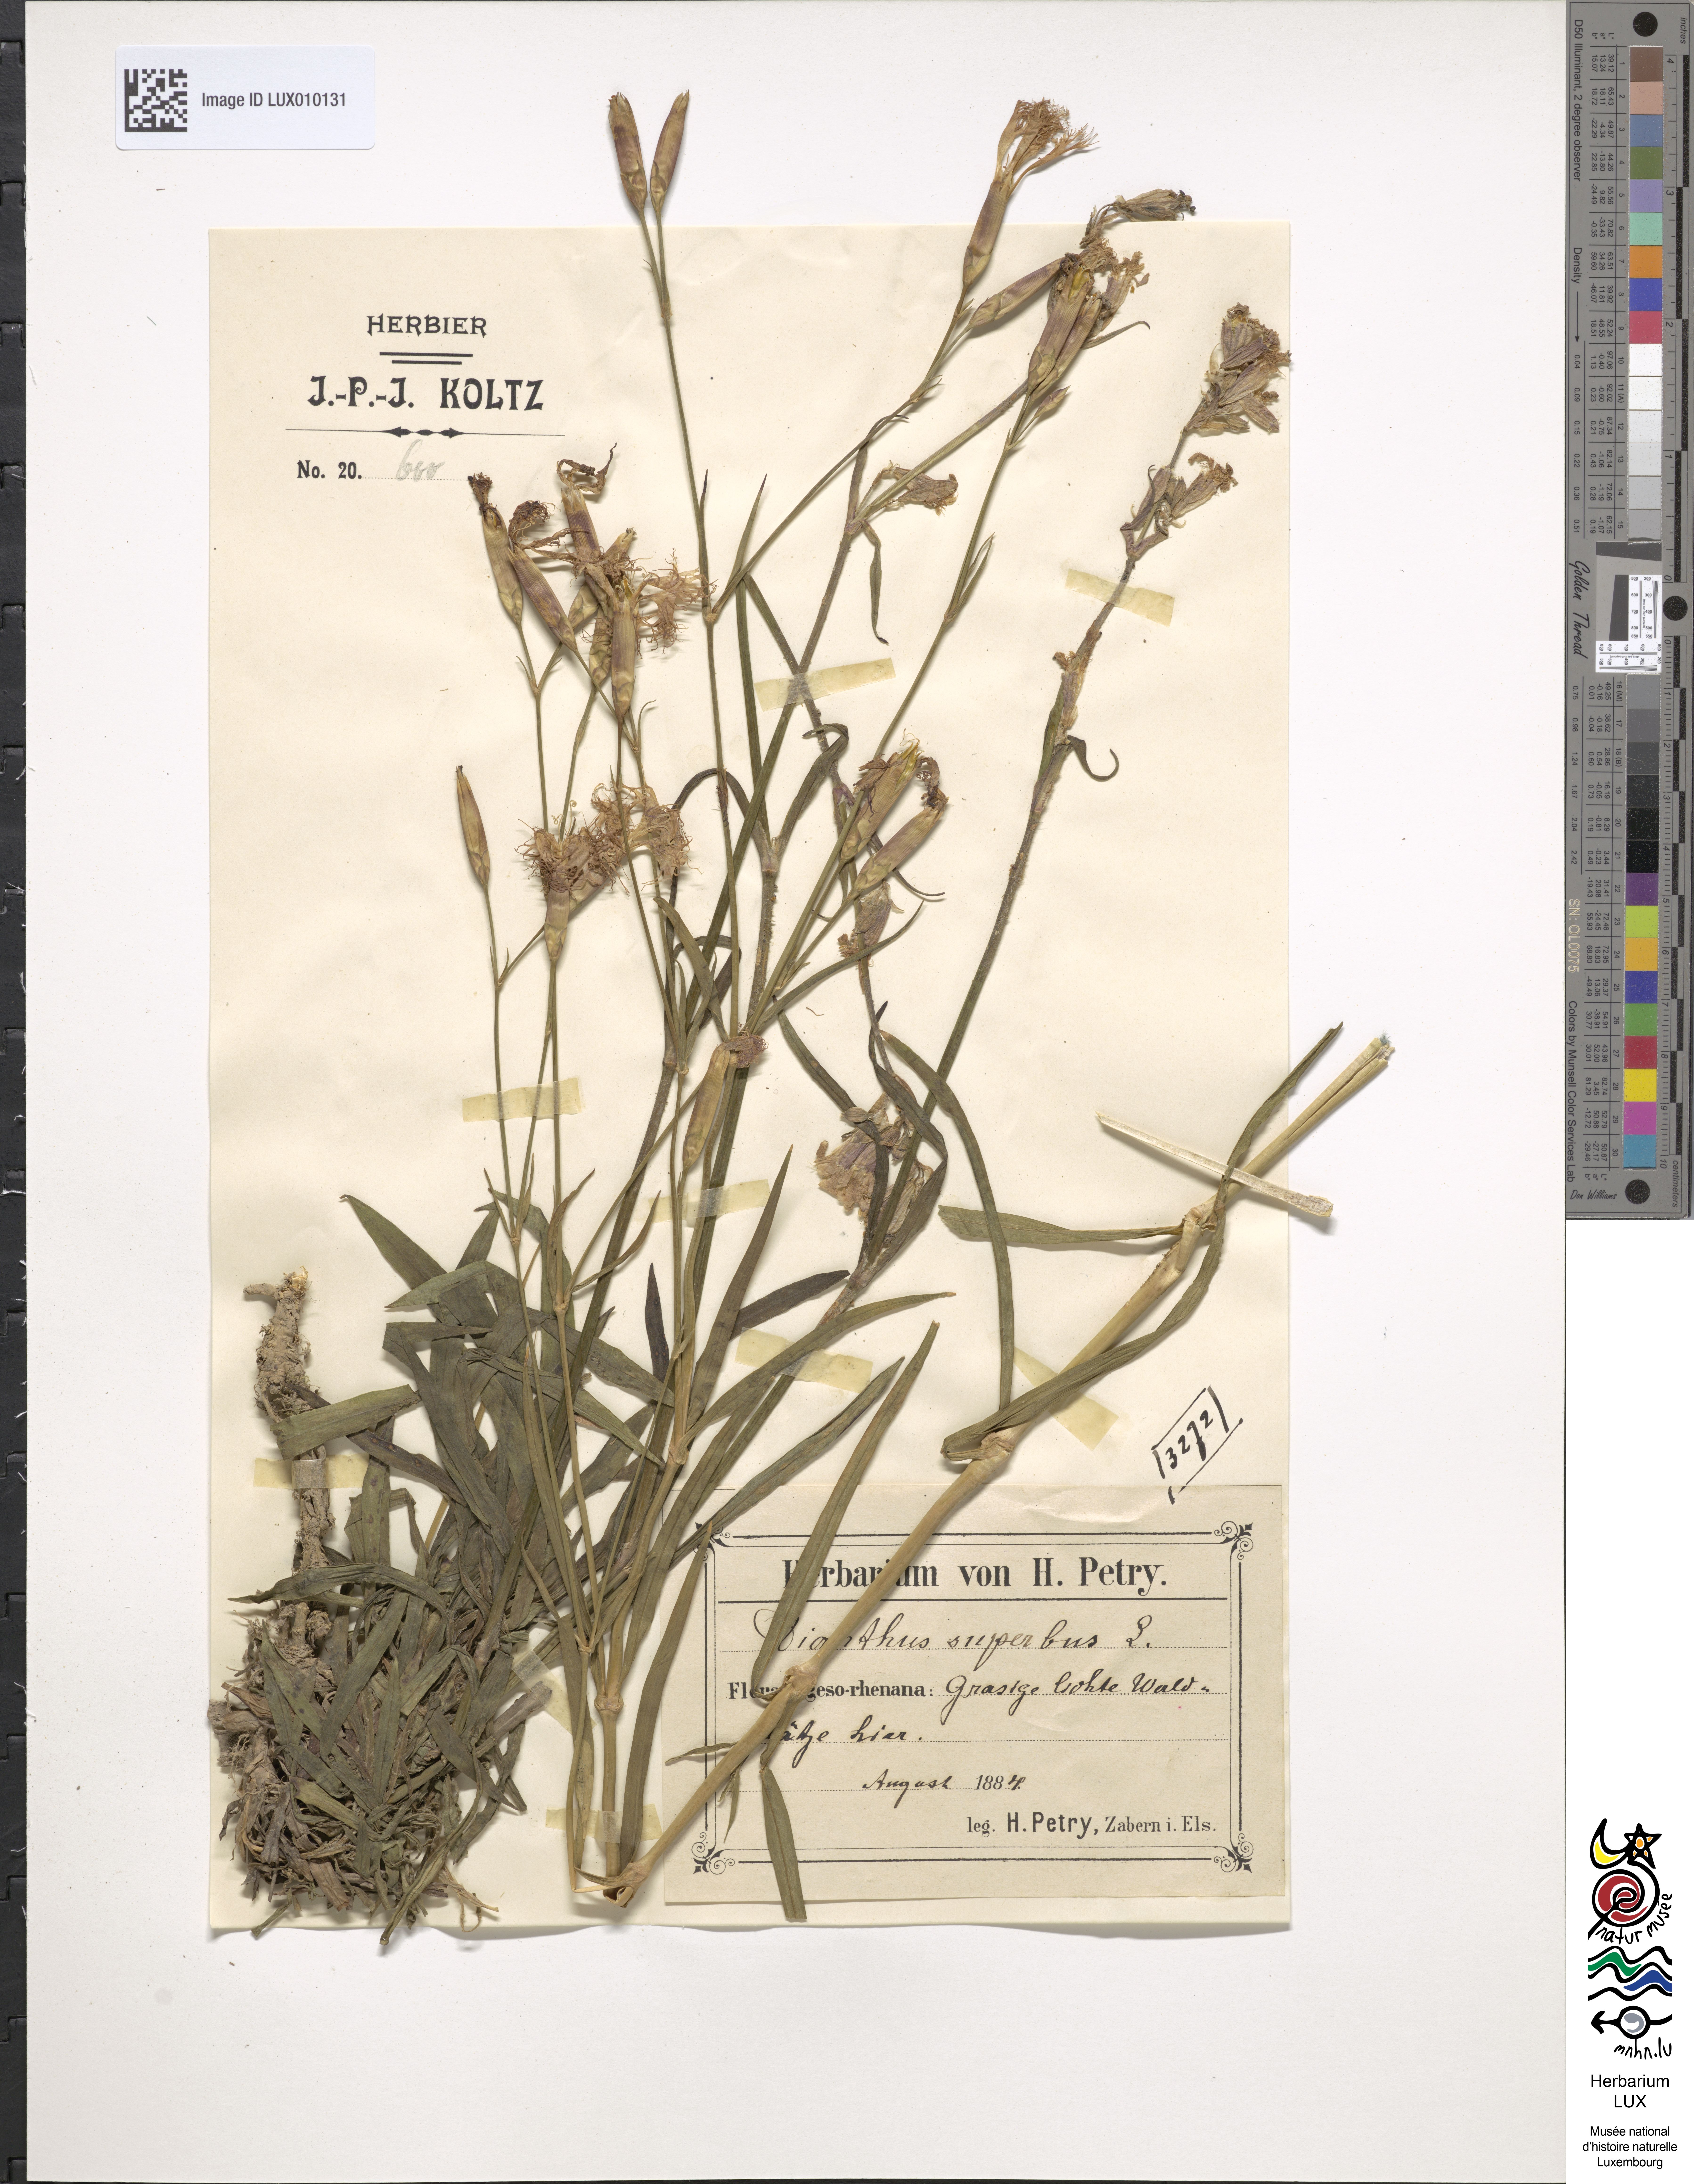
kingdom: Plantae
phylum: Tracheophyta
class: Magnoliopsida
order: Caryophyllales
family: Caryophyllaceae
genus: Dianthus
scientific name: Dianthus superbus
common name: Fringed pink
